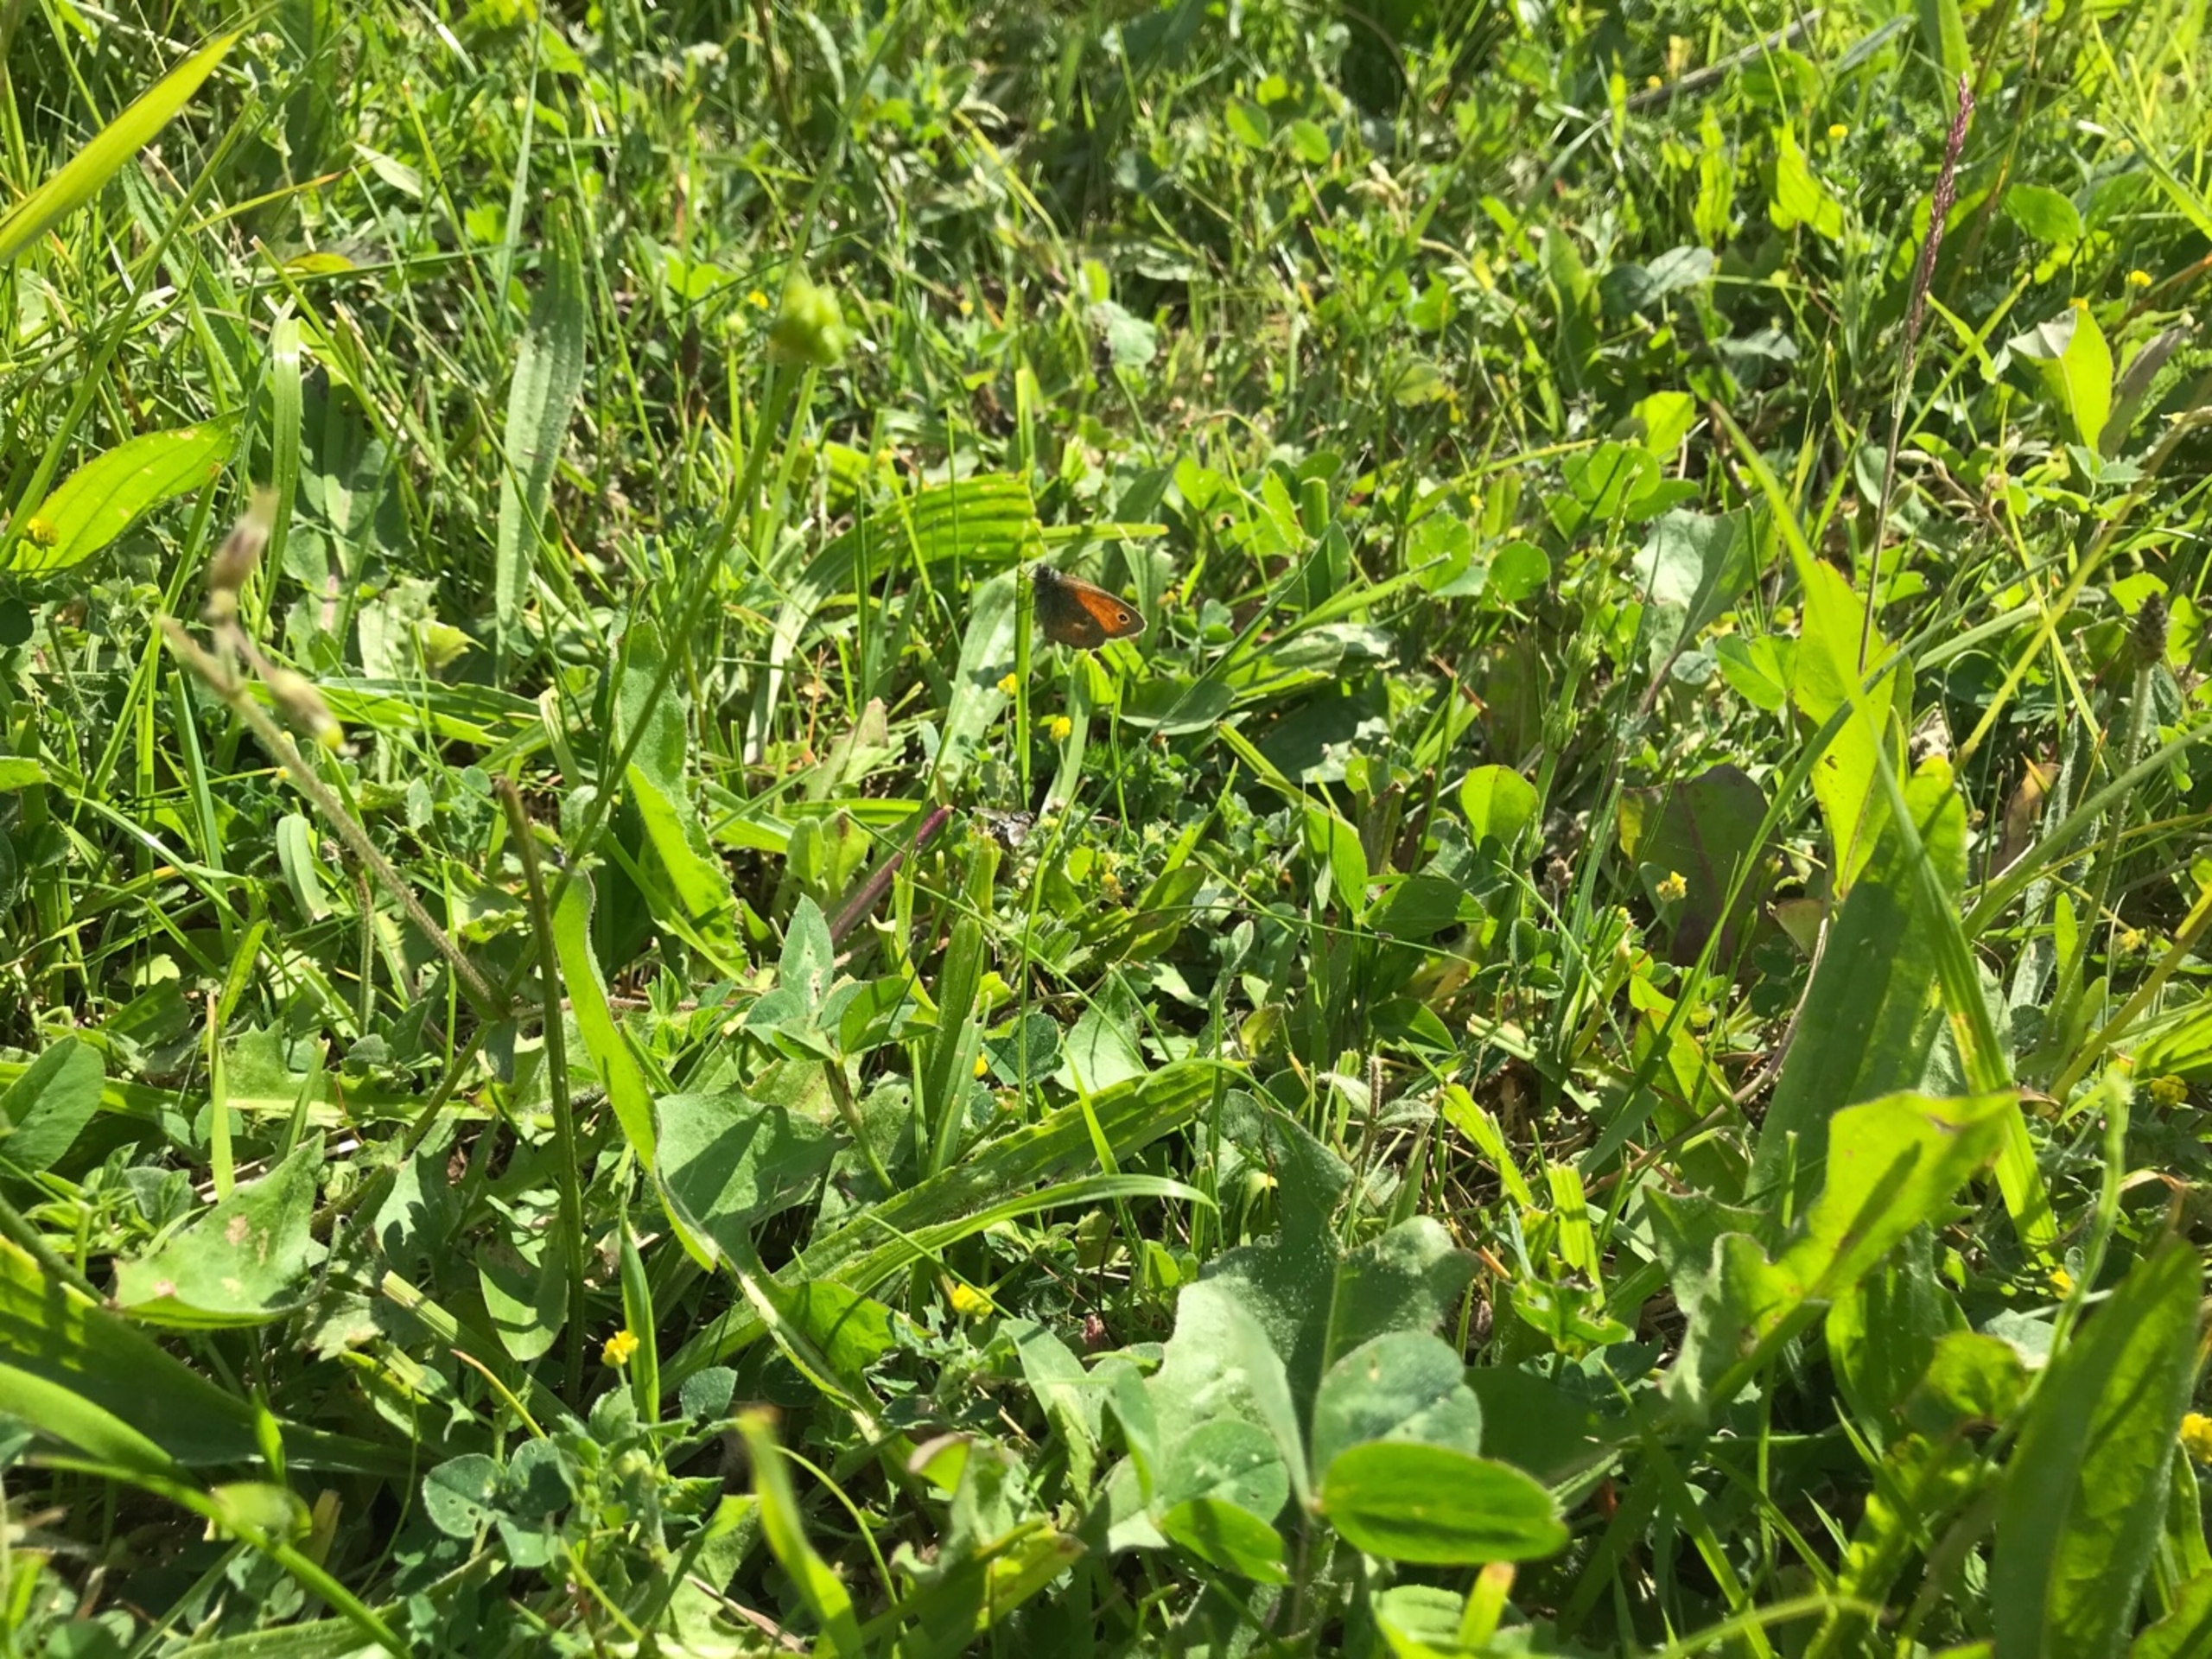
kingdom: Animalia
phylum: Arthropoda
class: Insecta
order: Lepidoptera
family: Nymphalidae
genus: Coenonympha
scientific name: Coenonympha pamphilus
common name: Okkergul randøje
